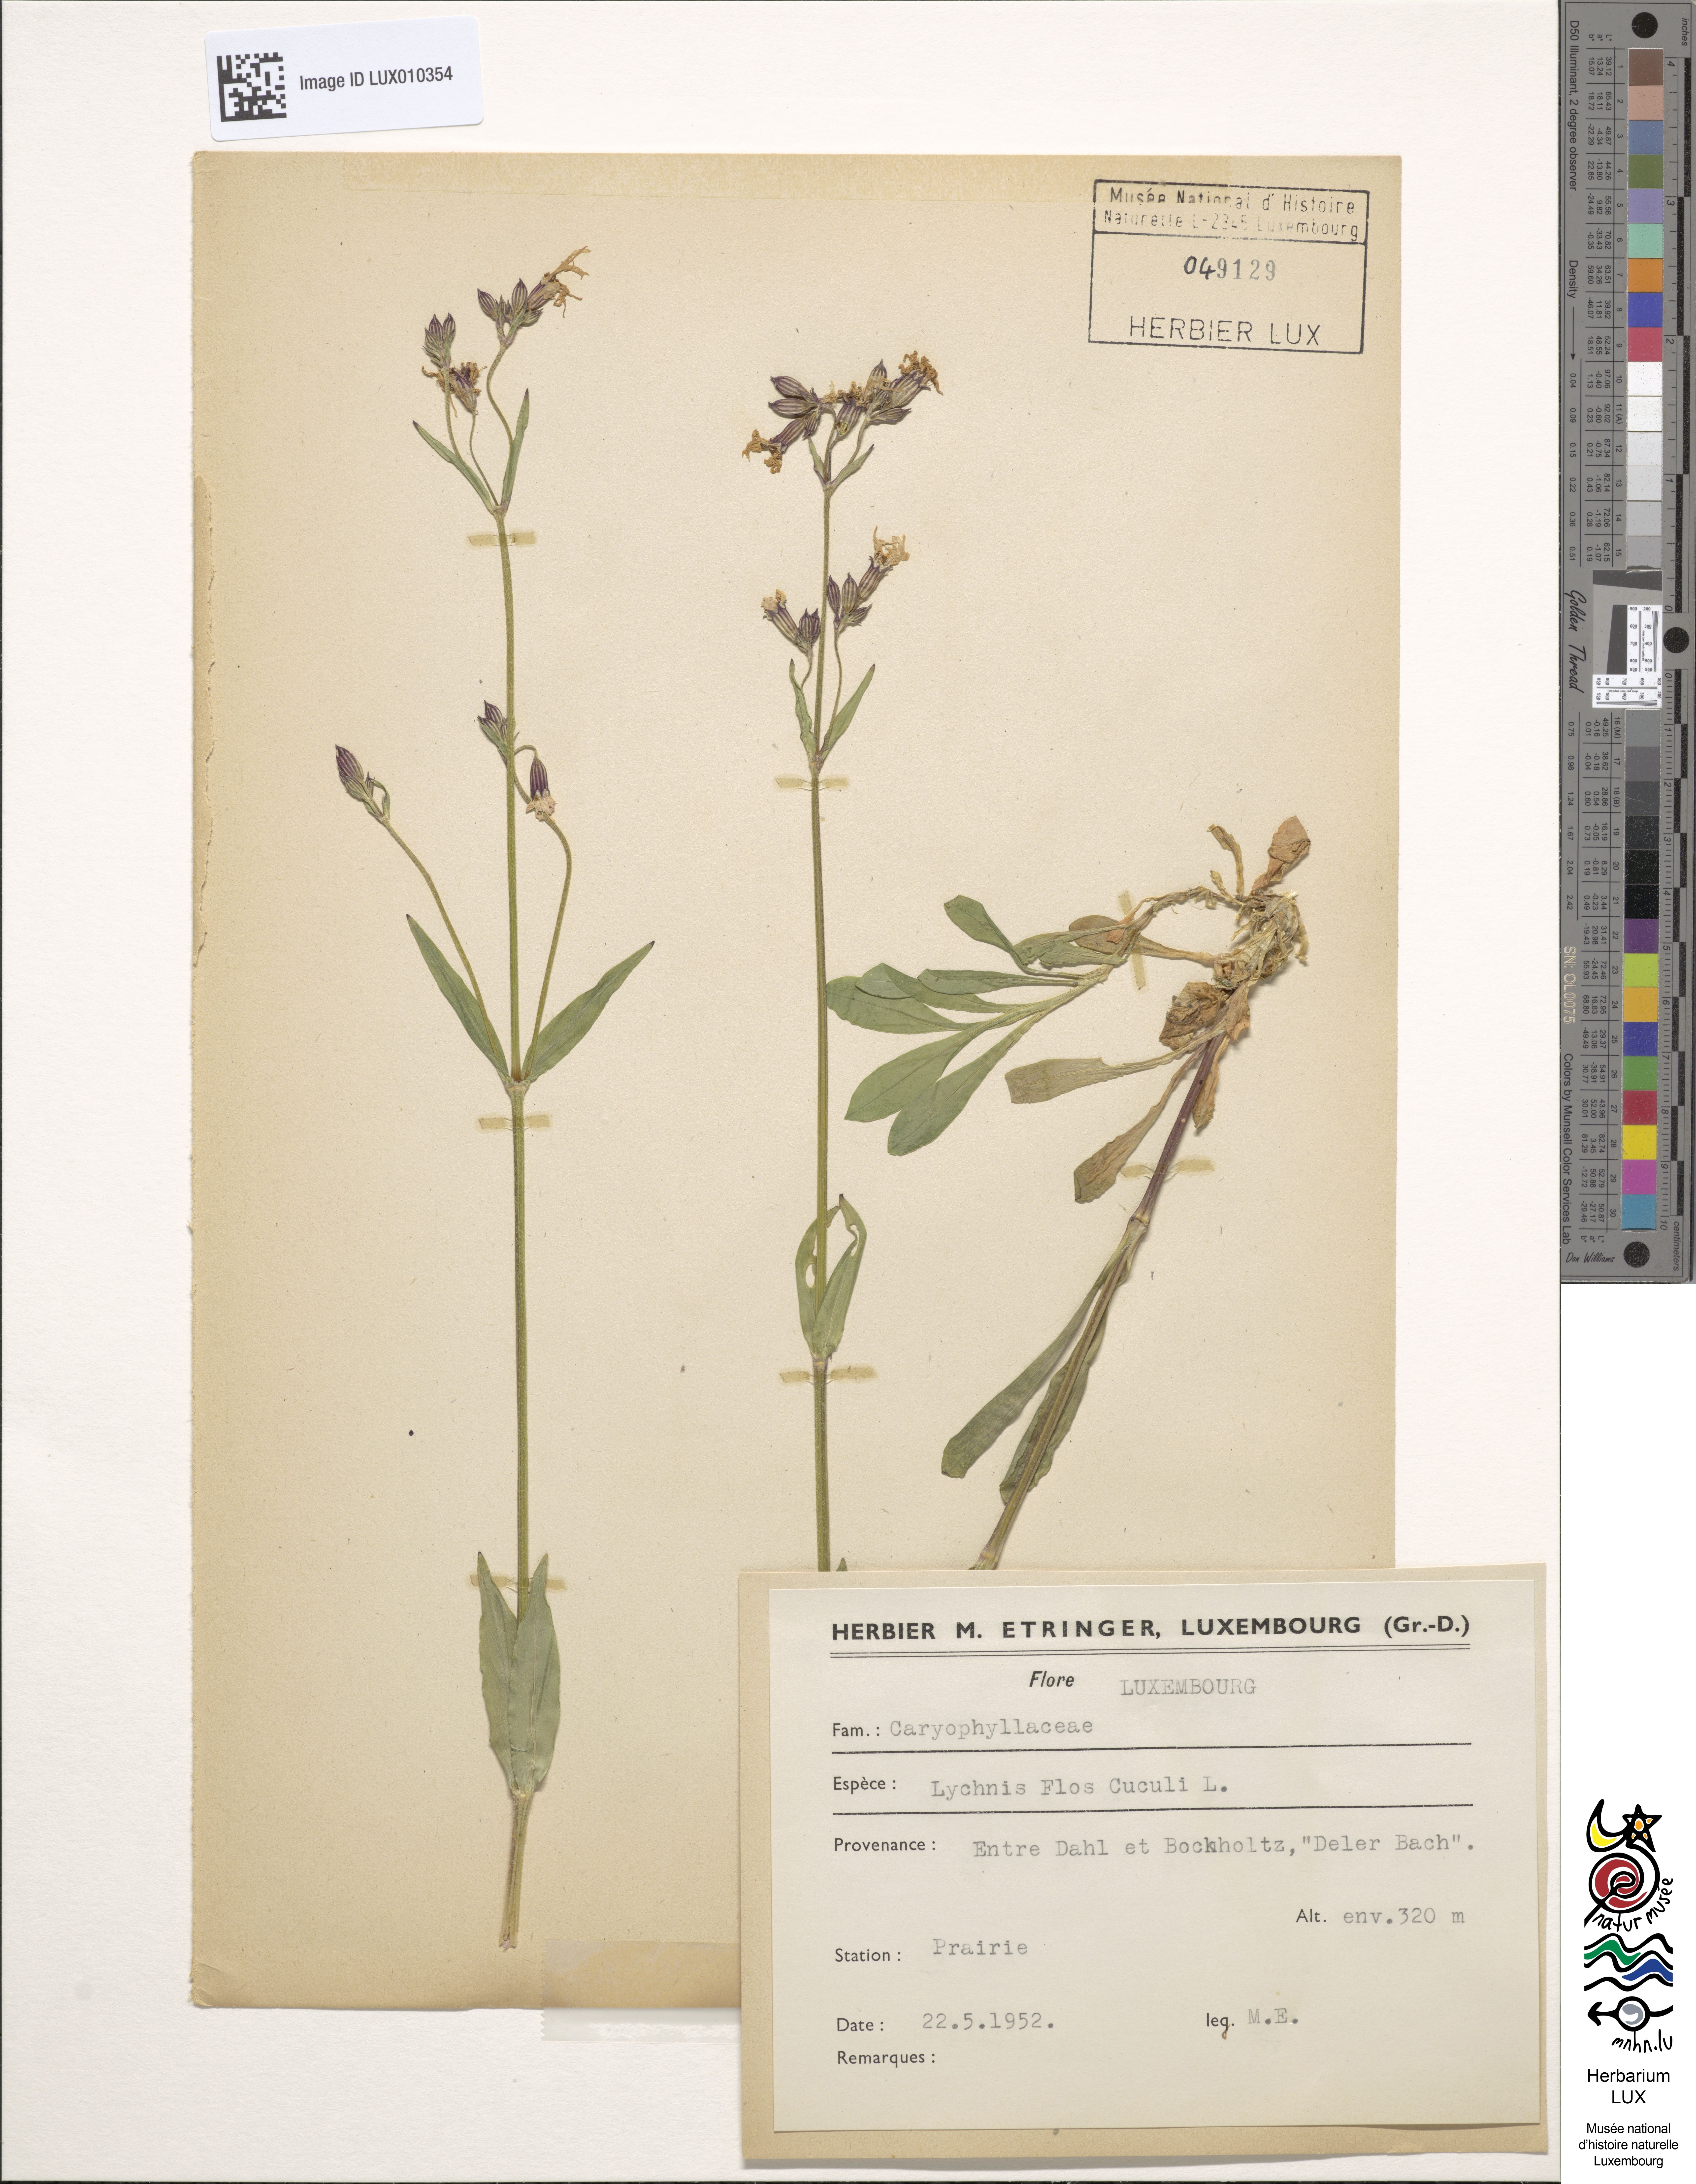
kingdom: Plantae
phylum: Tracheophyta
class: Magnoliopsida
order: Caryophyllales
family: Caryophyllaceae
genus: Silene
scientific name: Silene flos-cuculi
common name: Ragged-robin
